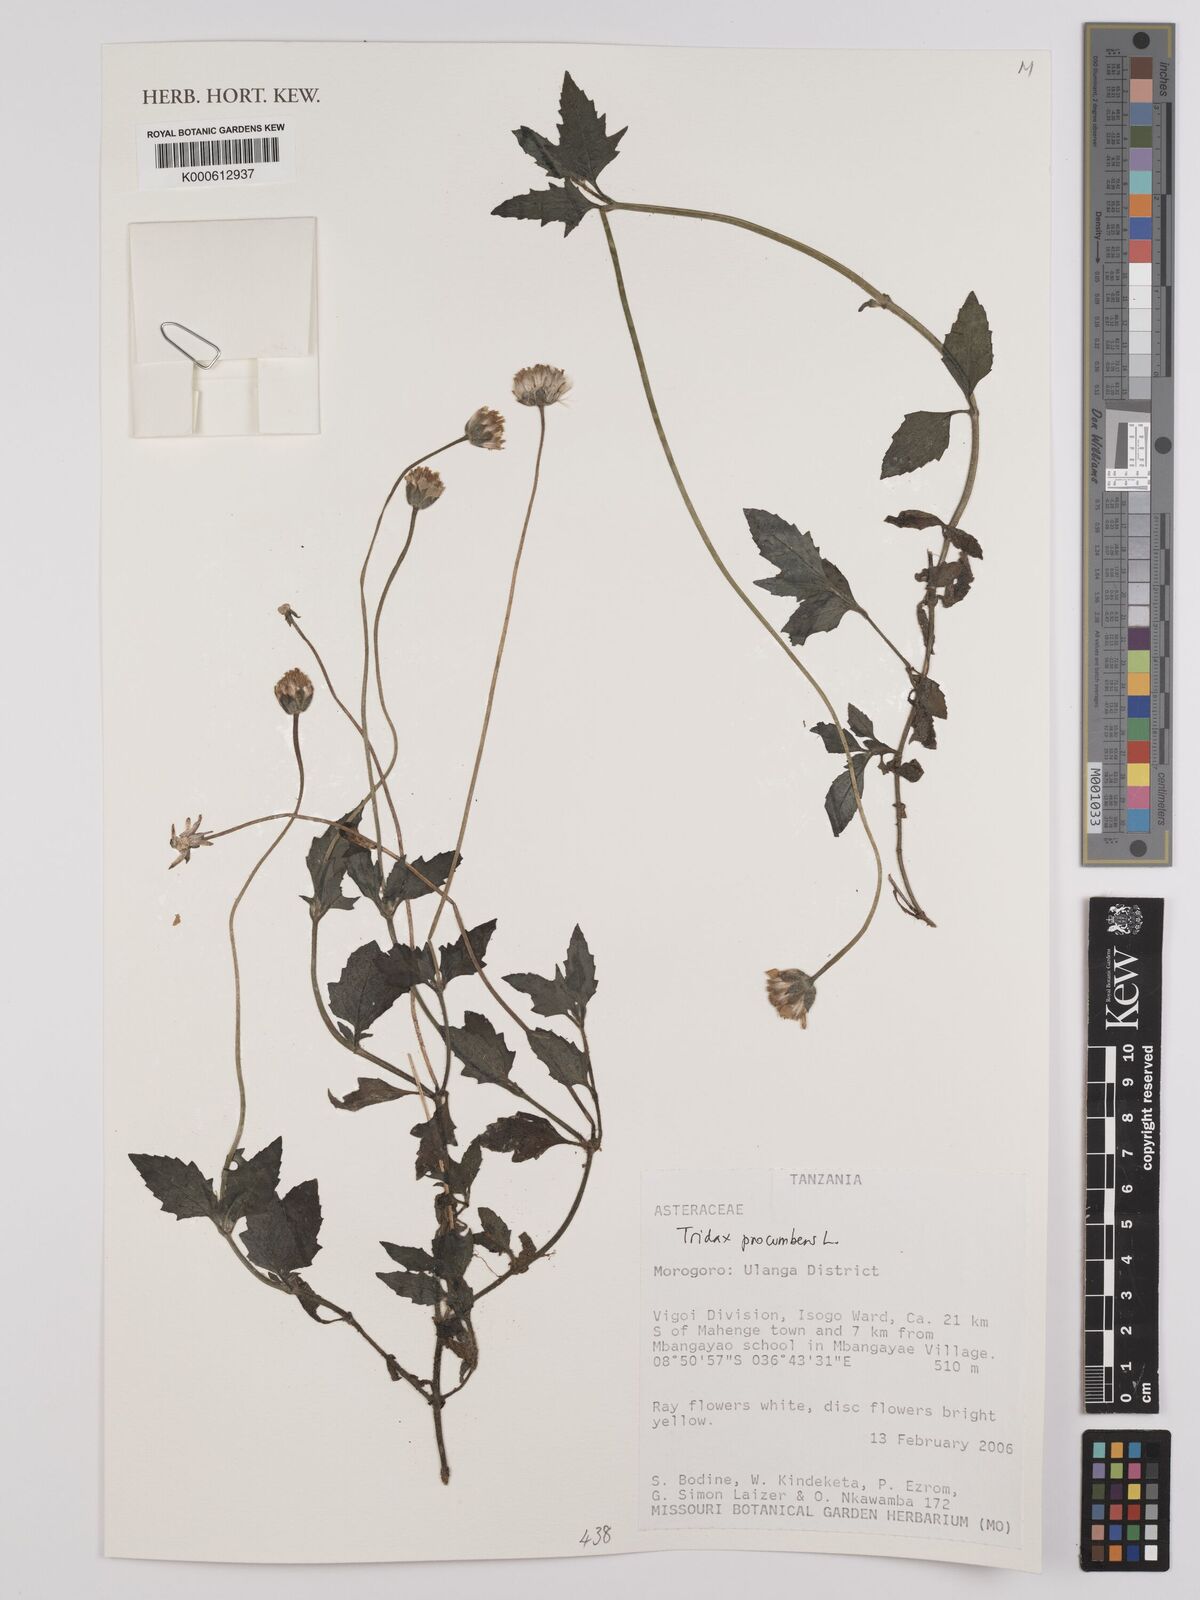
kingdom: Plantae
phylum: Tracheophyta
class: Magnoliopsida
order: Asterales
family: Asteraceae
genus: Tridax
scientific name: Tridax procumbens
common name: Coatbuttons
